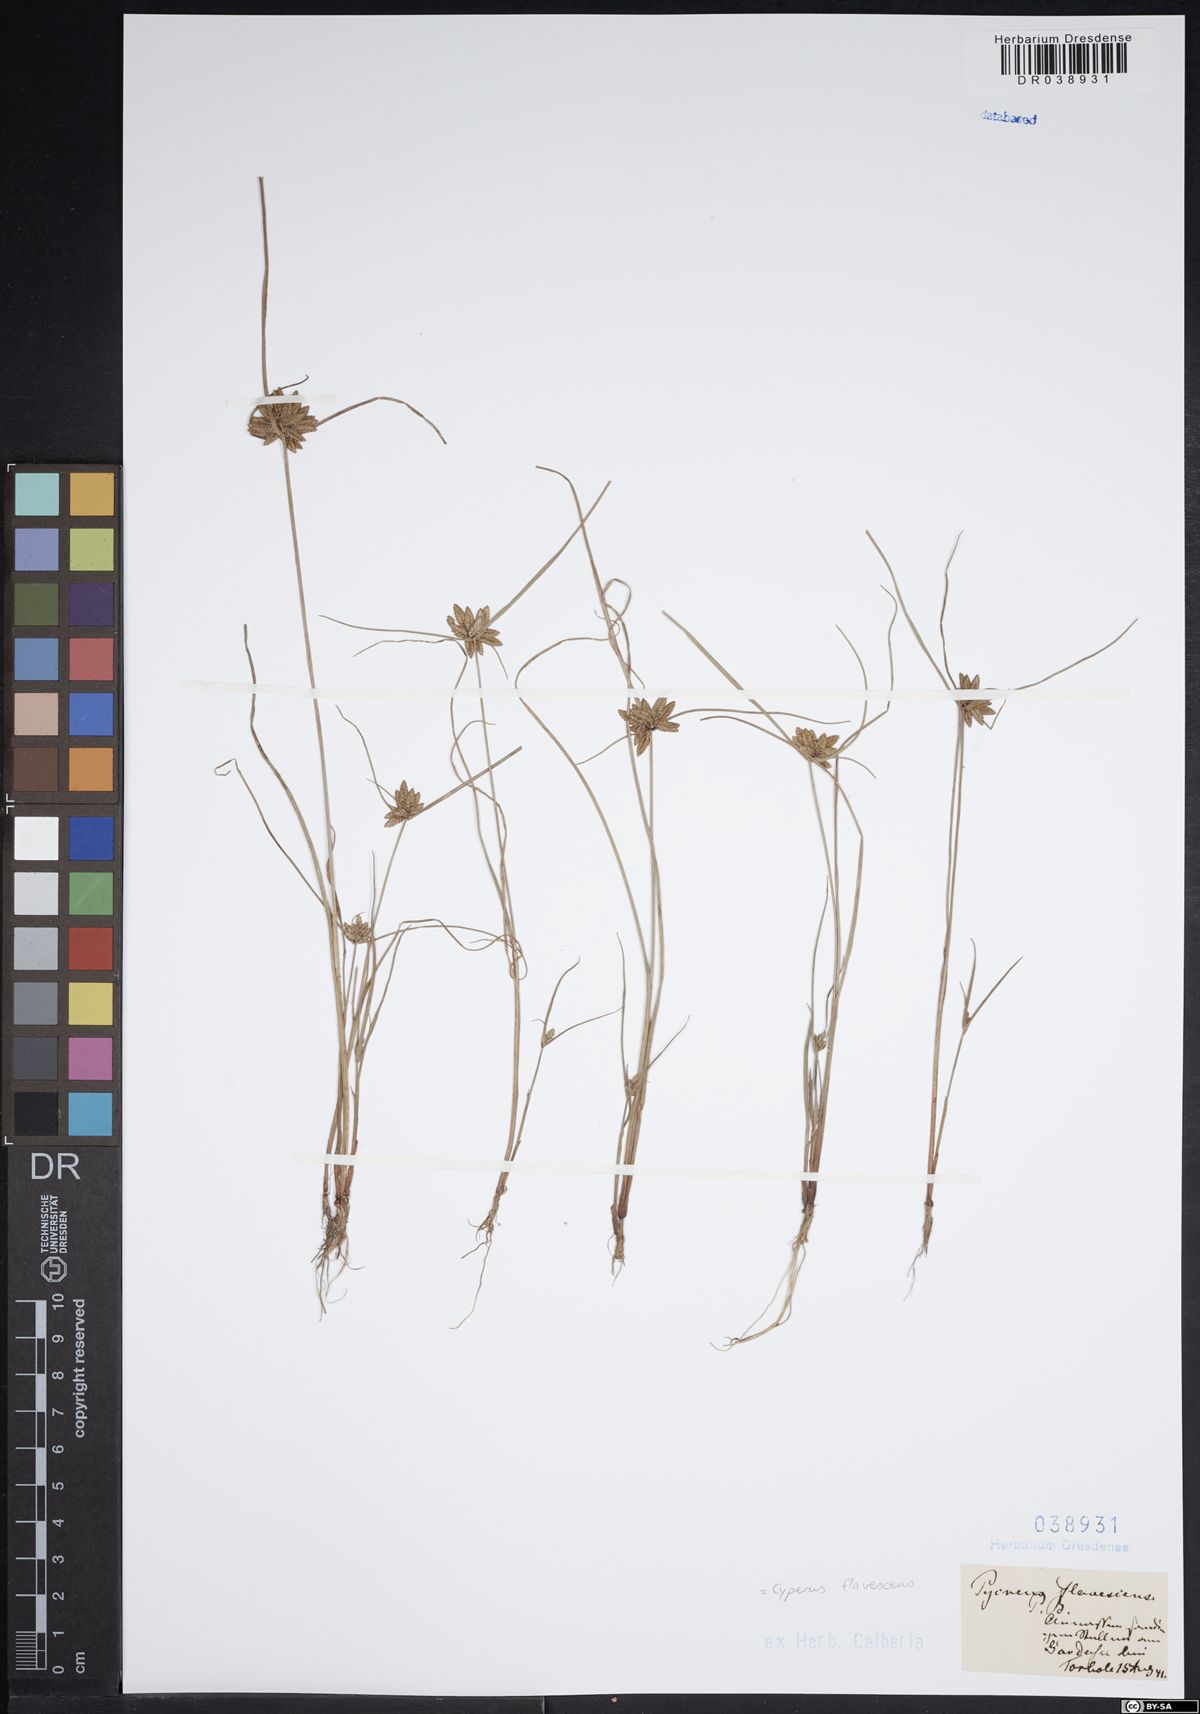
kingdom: Plantae
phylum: Tracheophyta
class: Liliopsida
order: Poales
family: Cyperaceae
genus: Cyperus
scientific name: Cyperus flavescens
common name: Yellow galingale
